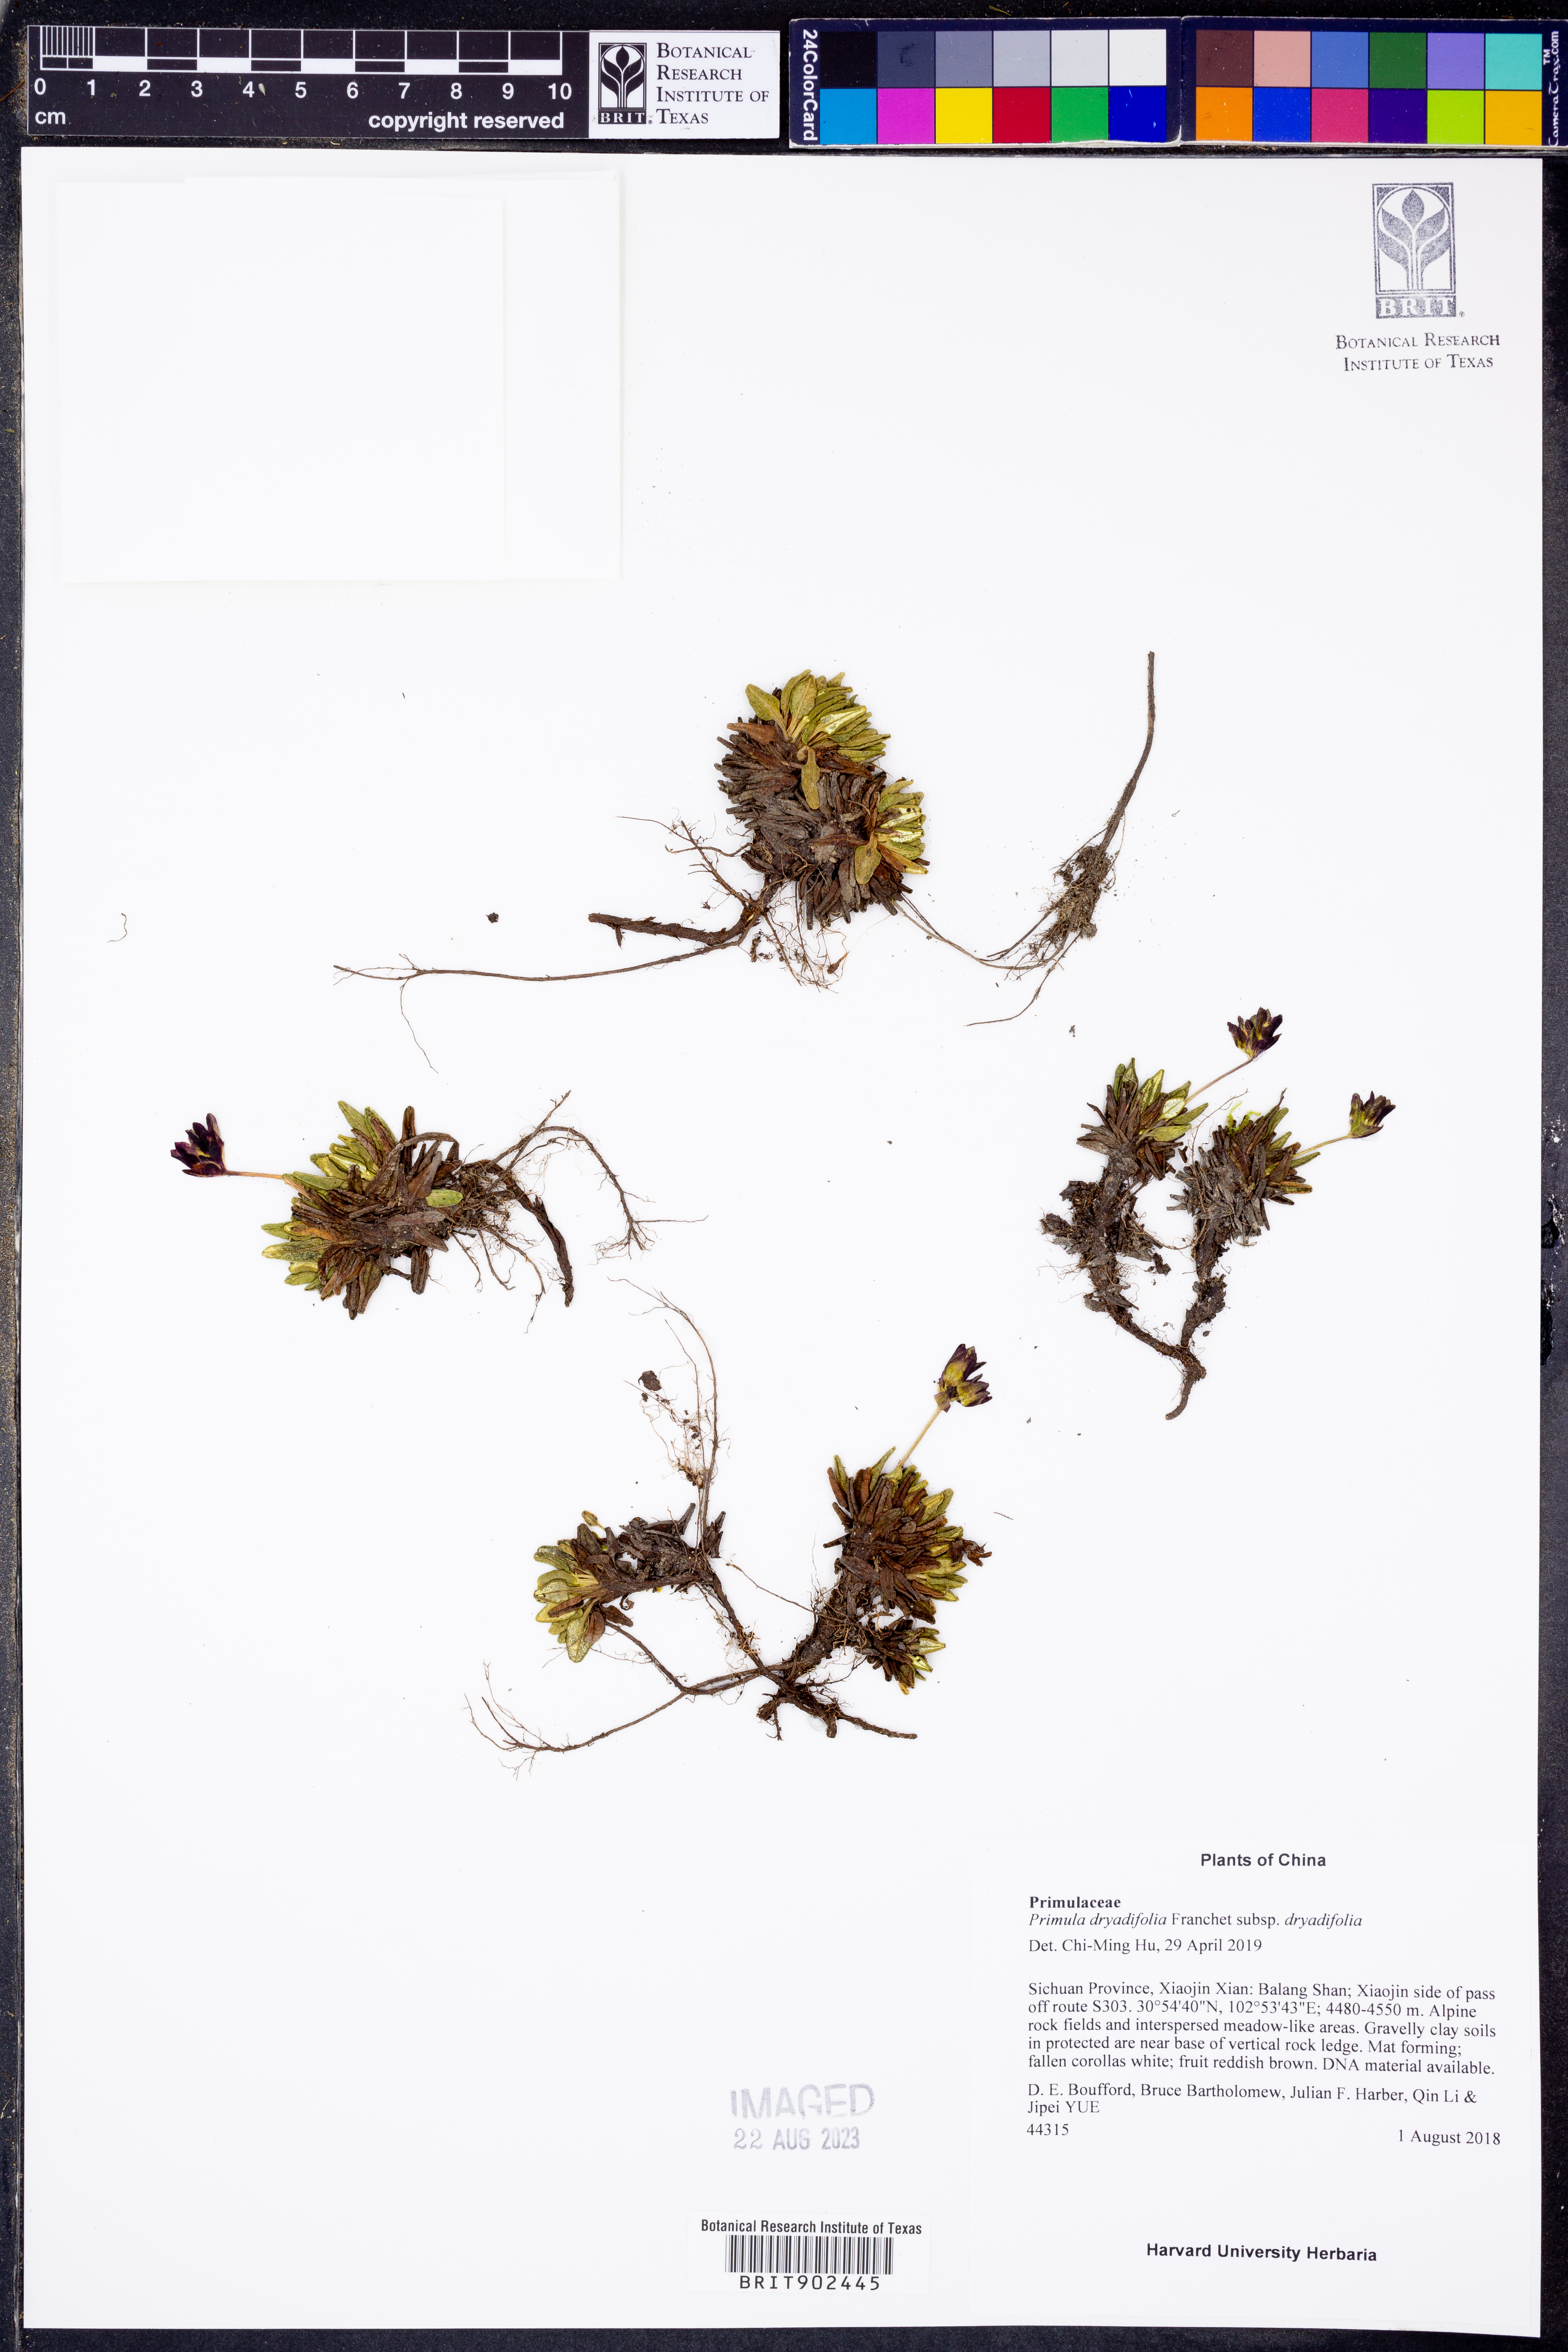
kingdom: Plantae
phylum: Tracheophyta
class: Magnoliopsida
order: Ericales
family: Primulaceae
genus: Primula
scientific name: Primula
